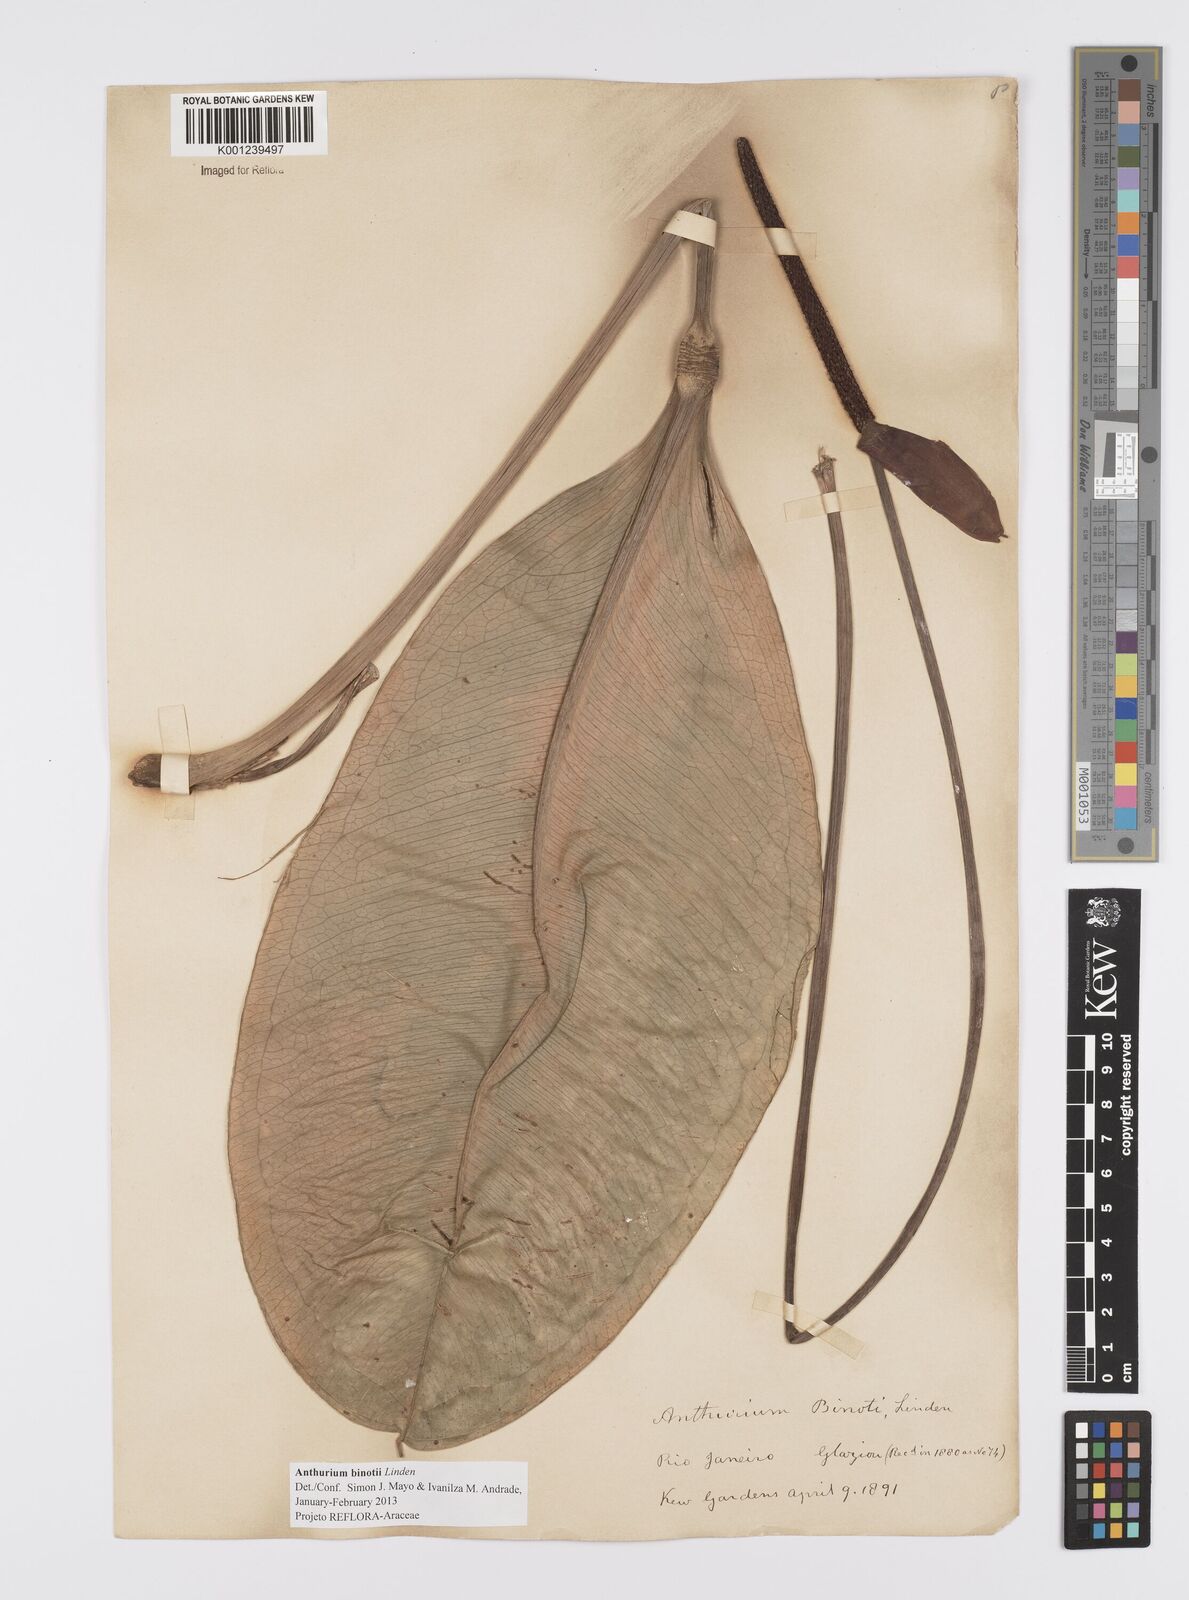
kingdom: Plantae
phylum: Tracheophyta
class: Liliopsida
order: Alismatales
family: Araceae
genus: Anthurium
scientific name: Anthurium binotii
